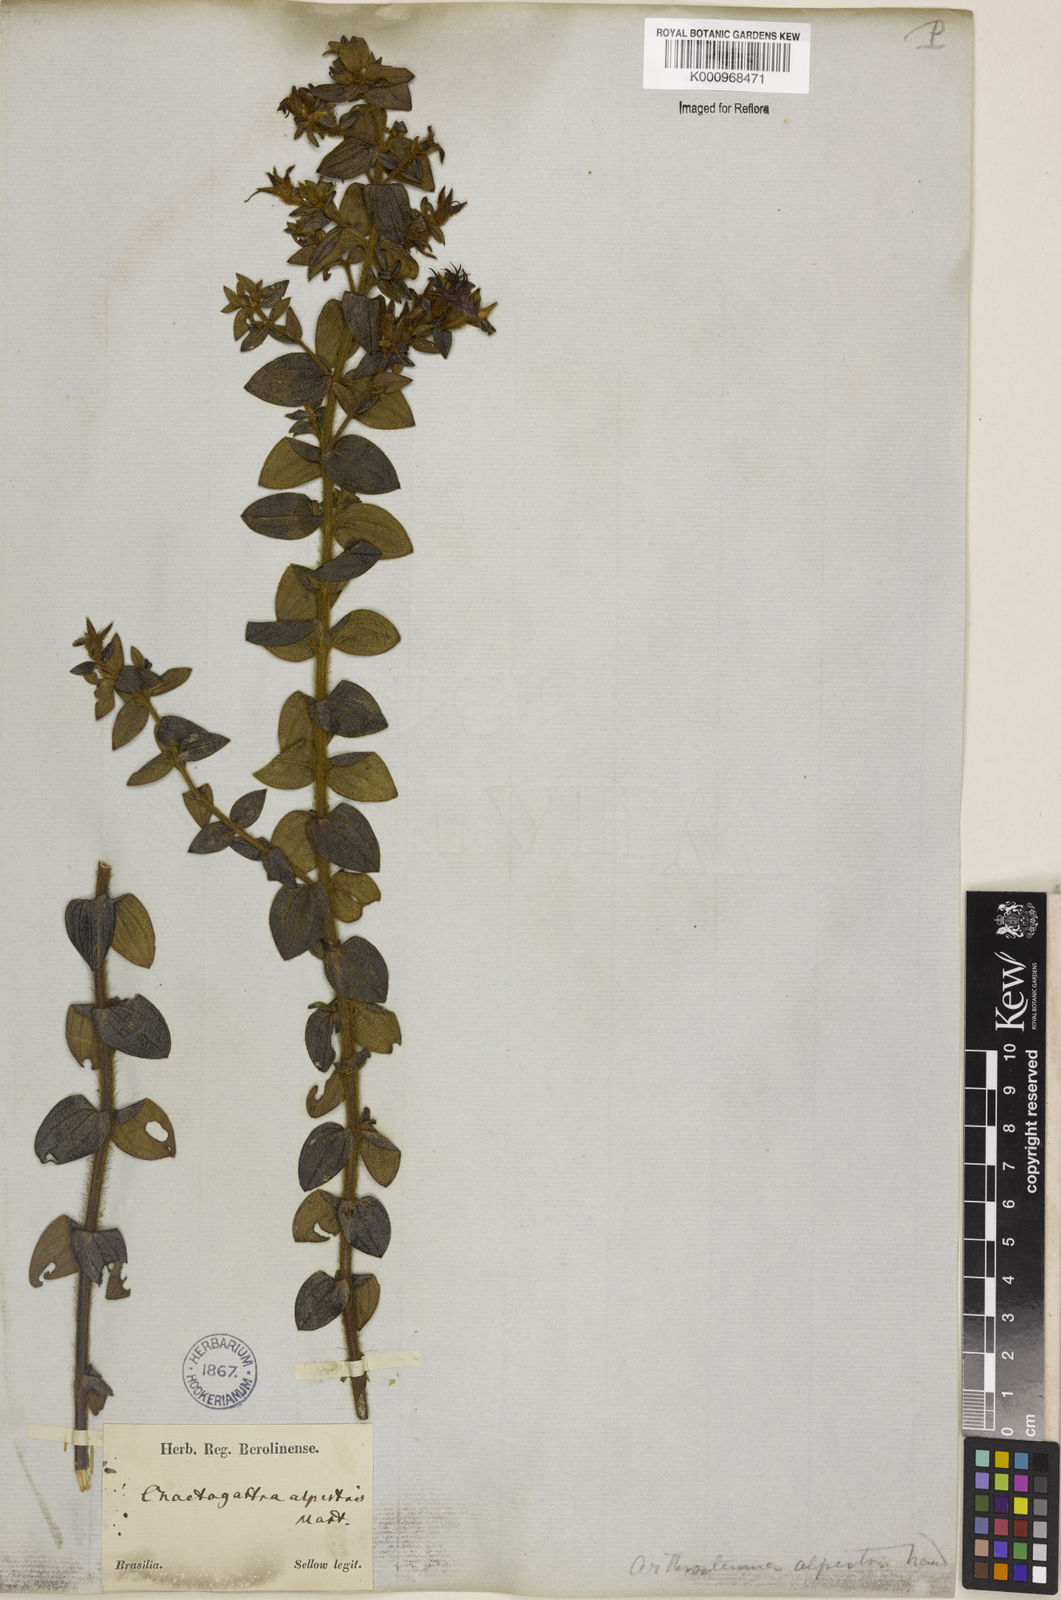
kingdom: Plantae
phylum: Tracheophyta
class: Magnoliopsida
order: Myrtales
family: Melastomataceae
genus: Pterolepis
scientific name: Pterolepis alpestris
